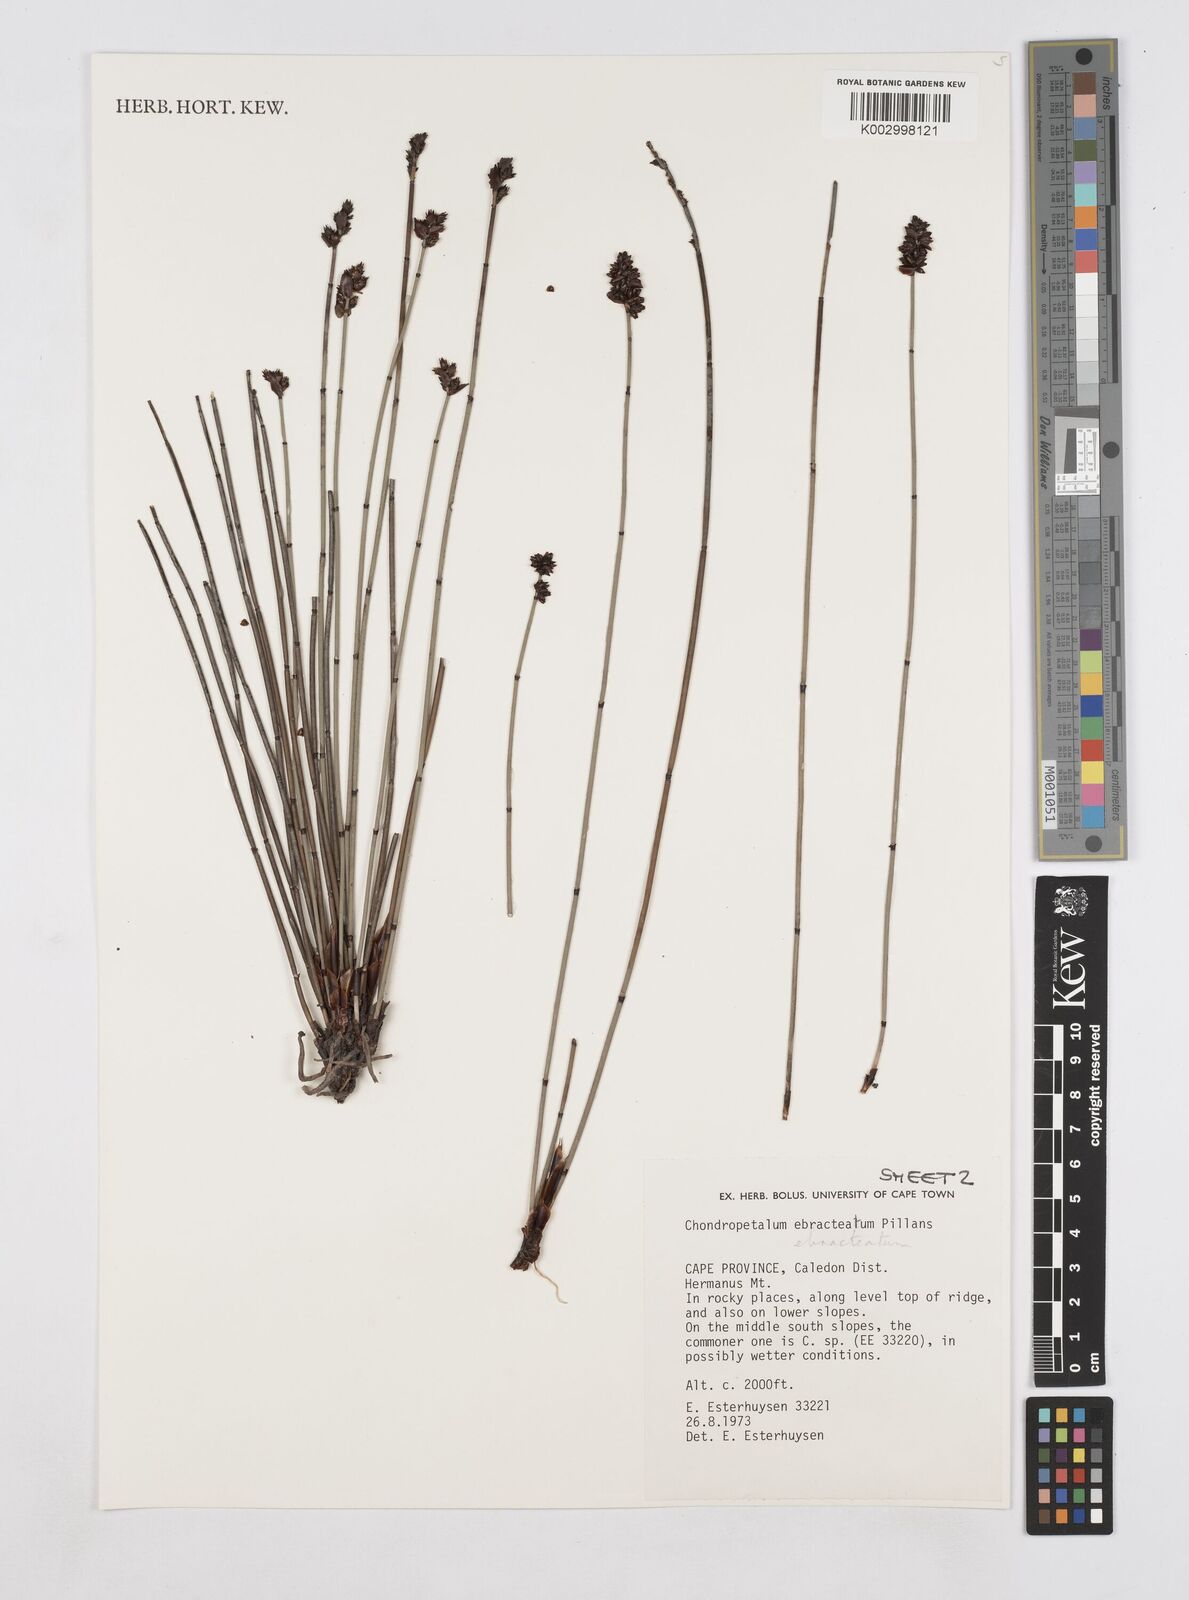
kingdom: Plantae
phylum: Tracheophyta
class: Liliopsida
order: Poales
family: Restionaceae
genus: Elegia
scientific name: Elegia ebracteata
